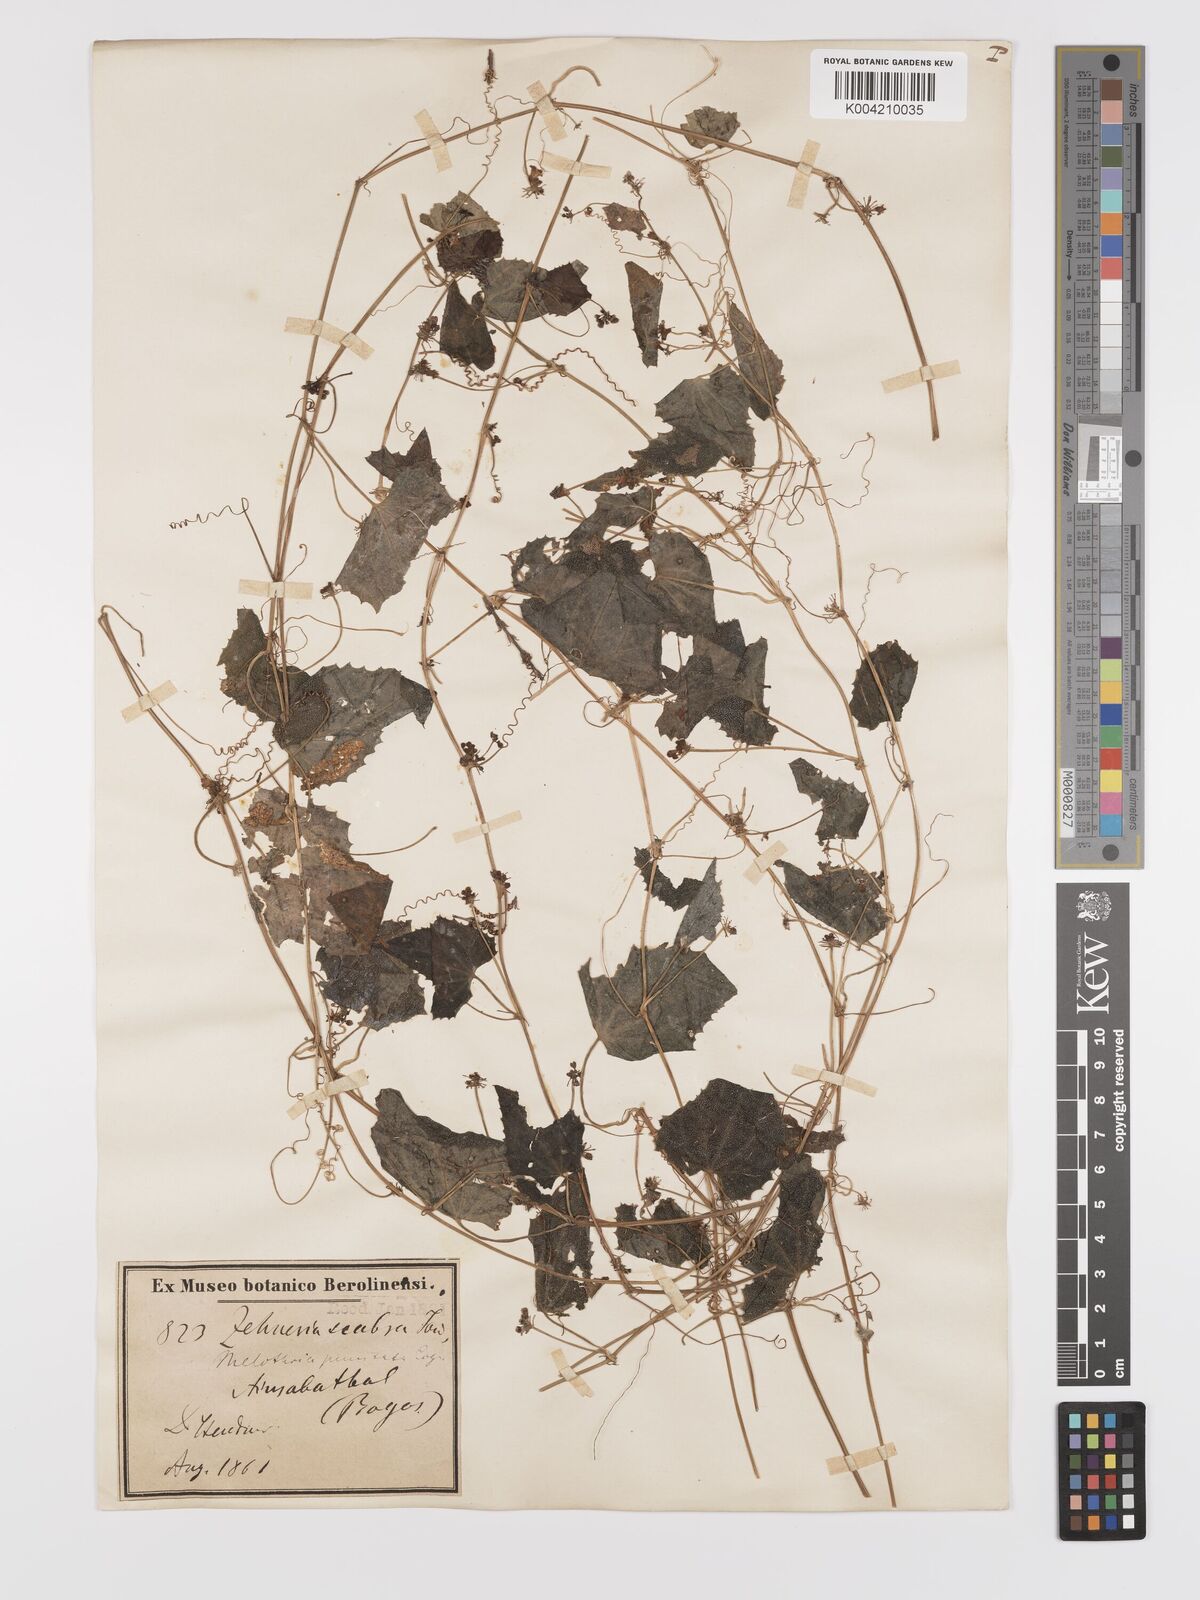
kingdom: Plantae
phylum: Tracheophyta
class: Magnoliopsida
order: Cucurbitales
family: Cucurbitaceae
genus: Zehneria
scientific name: Zehneria scabra
